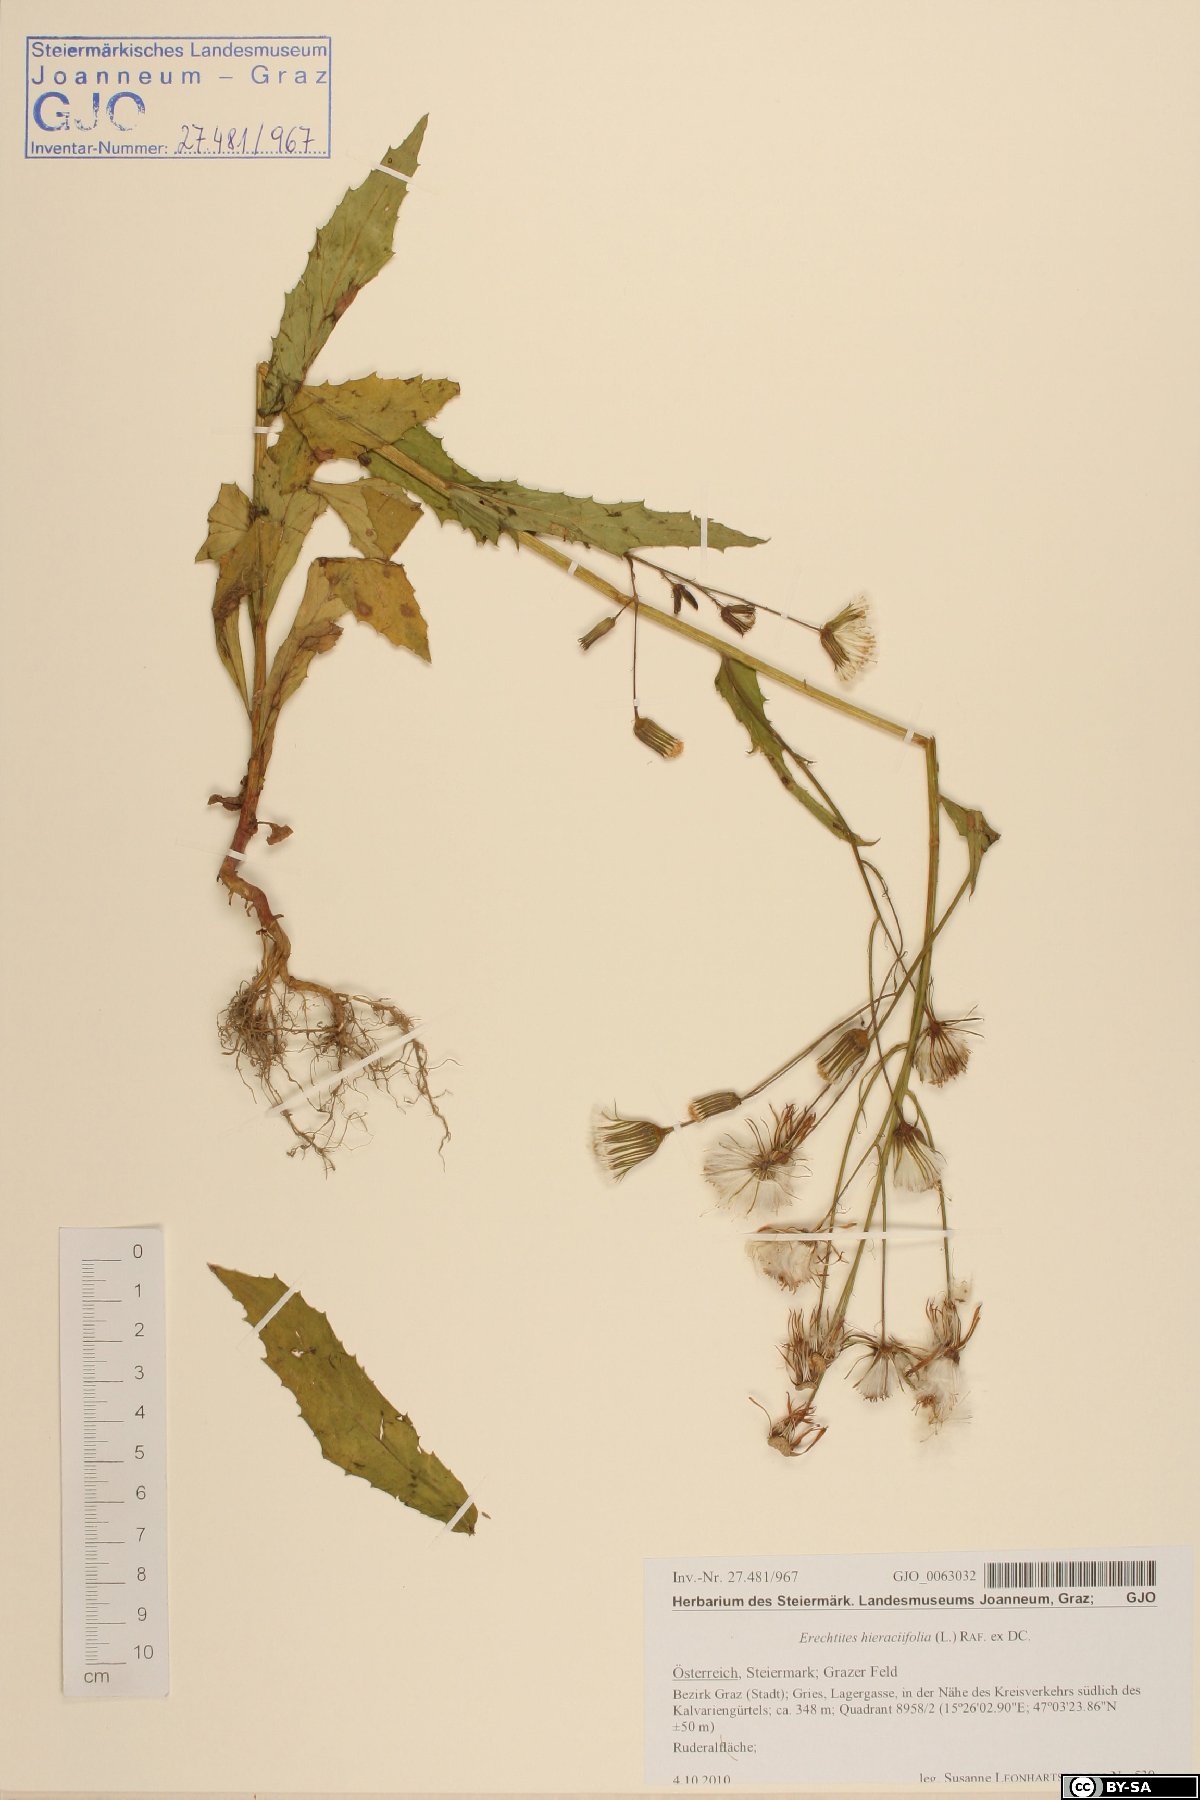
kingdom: Plantae
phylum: Tracheophyta
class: Magnoliopsida
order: Asterales
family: Asteraceae
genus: Erechtites
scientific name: Erechtites hieraciifolius
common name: American burnweed
